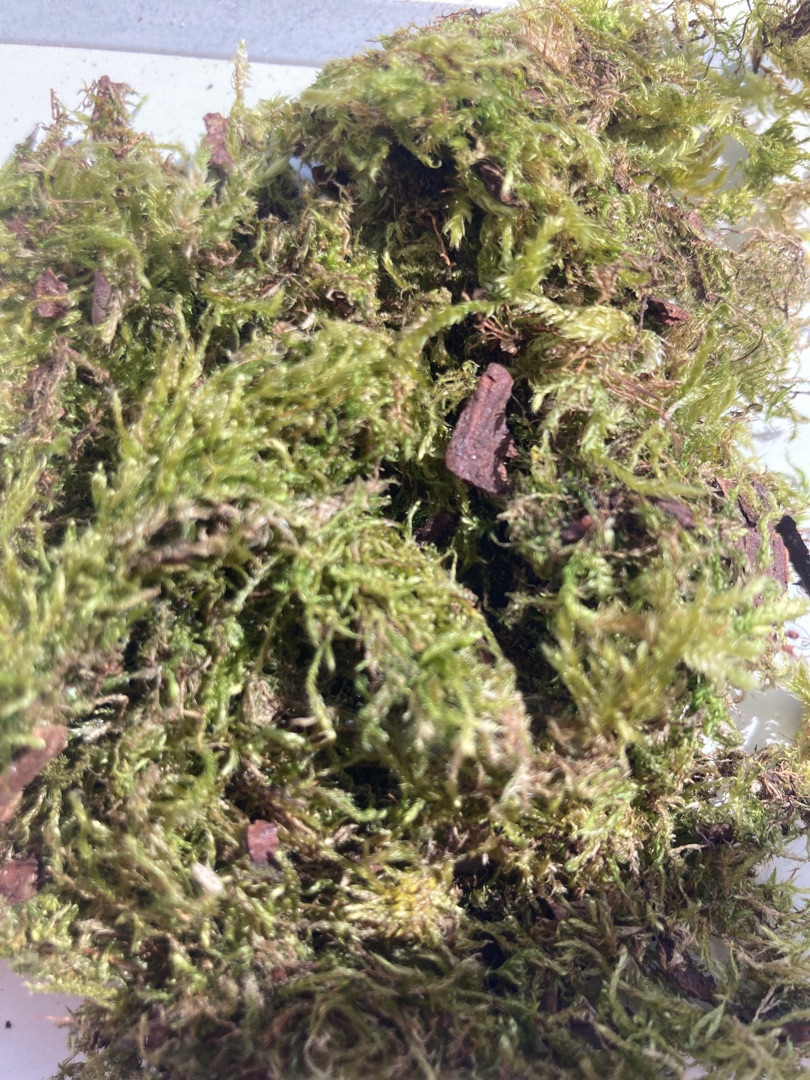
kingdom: Plantae
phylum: Bryophyta
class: Bryopsida
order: Hypnales
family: Hypnaceae
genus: Hypnum
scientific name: Hypnum
